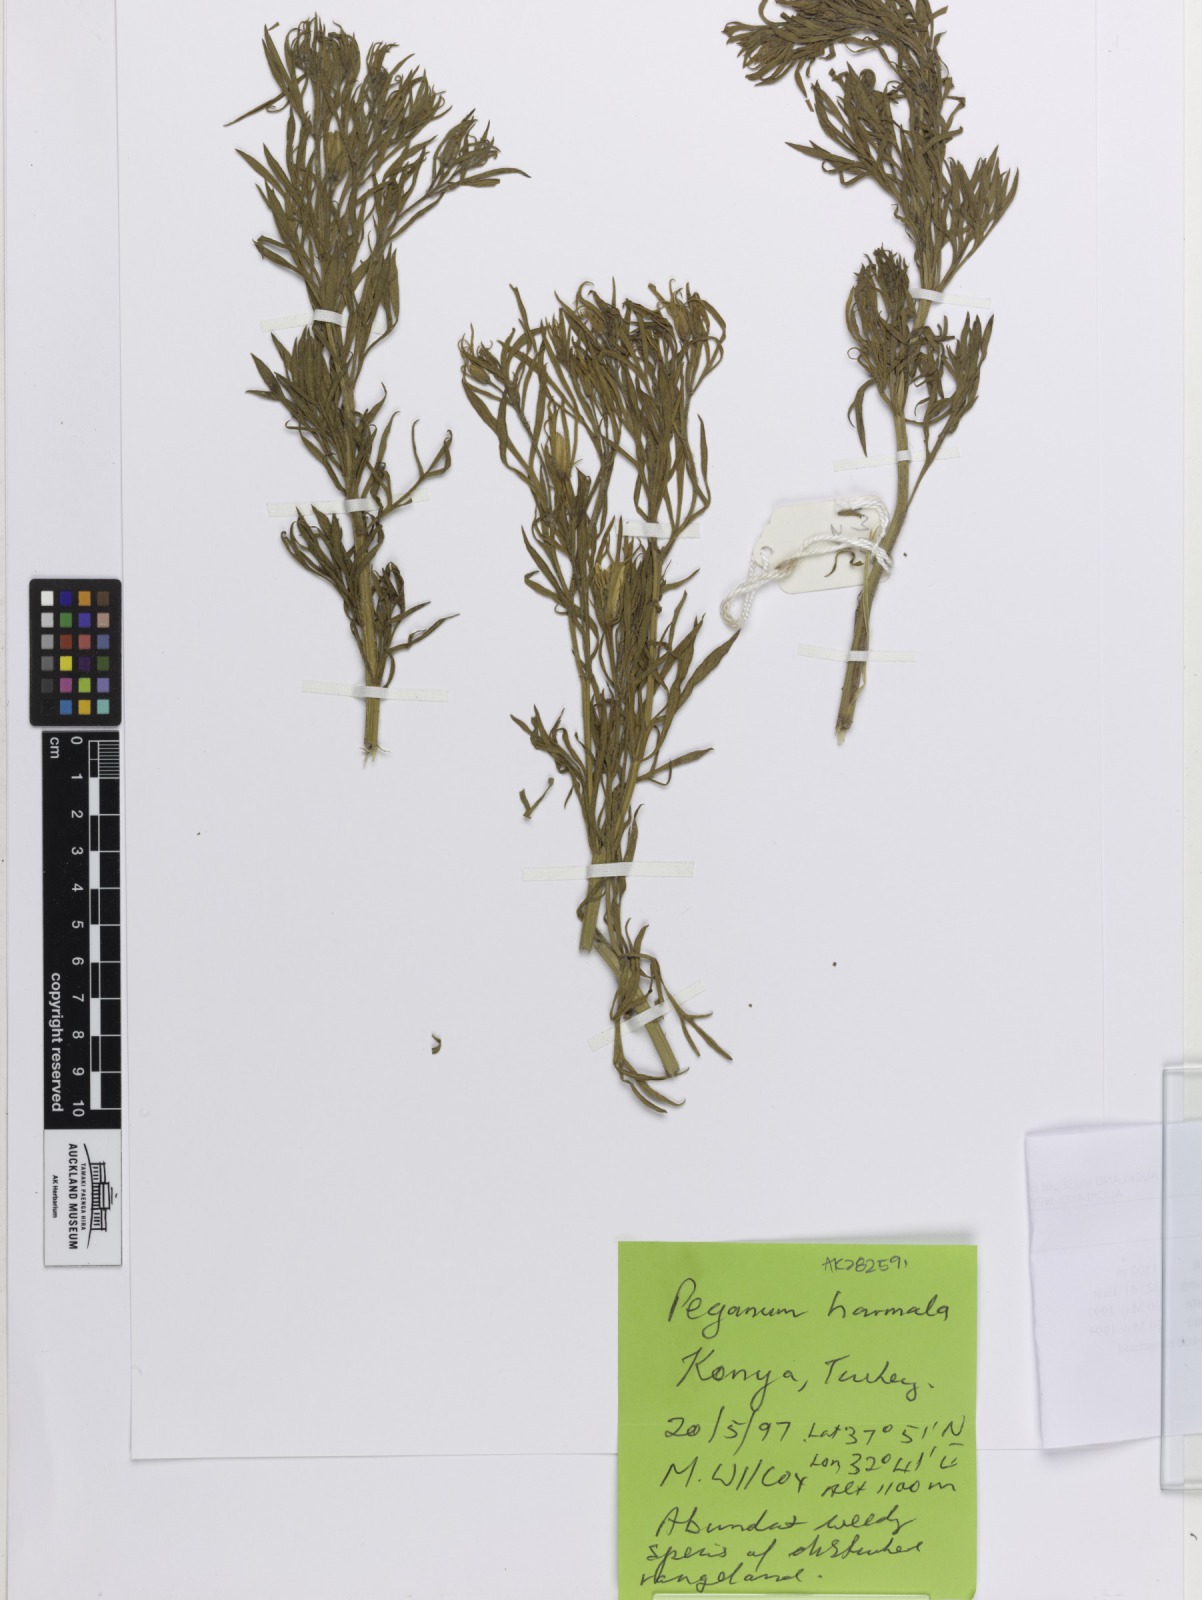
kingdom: Plantae
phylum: Tracheophyta
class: Magnoliopsida
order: Sapindales
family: Tetradiclidaceae
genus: Peganum
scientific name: Peganum harmala
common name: Harmal peganum
